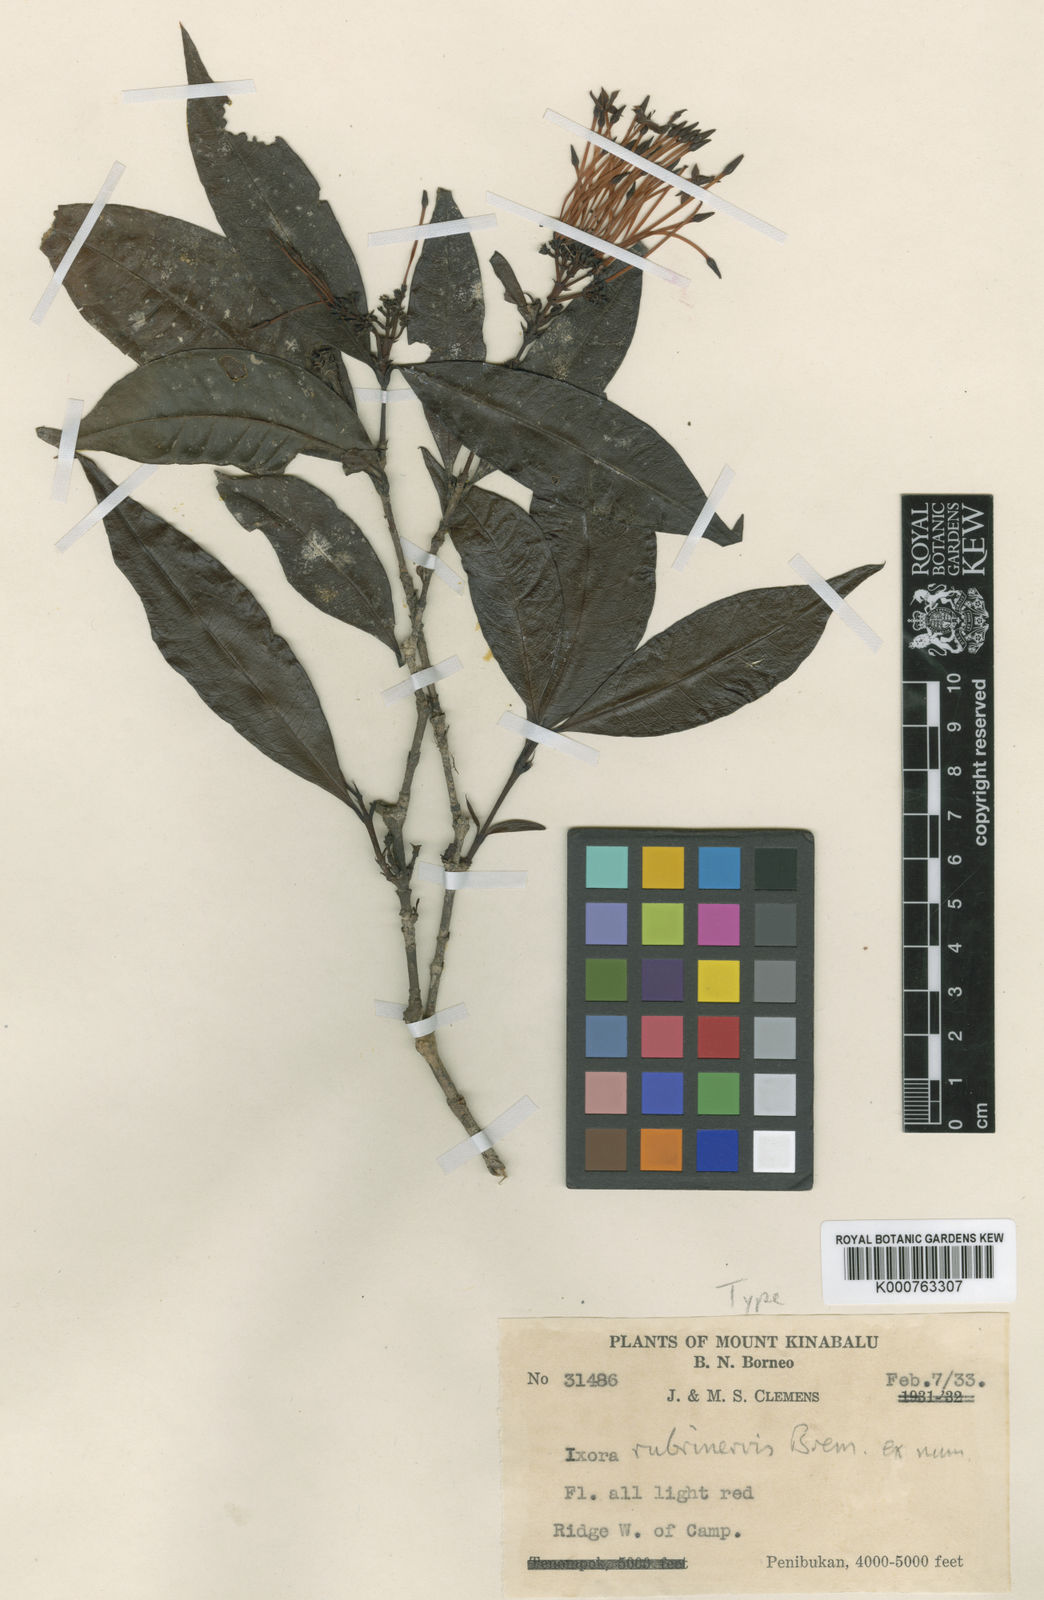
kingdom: Plantae
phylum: Tracheophyta
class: Magnoliopsida
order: Gentianales
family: Rubiaceae
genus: Ixora
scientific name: Ixora rubrinervis
